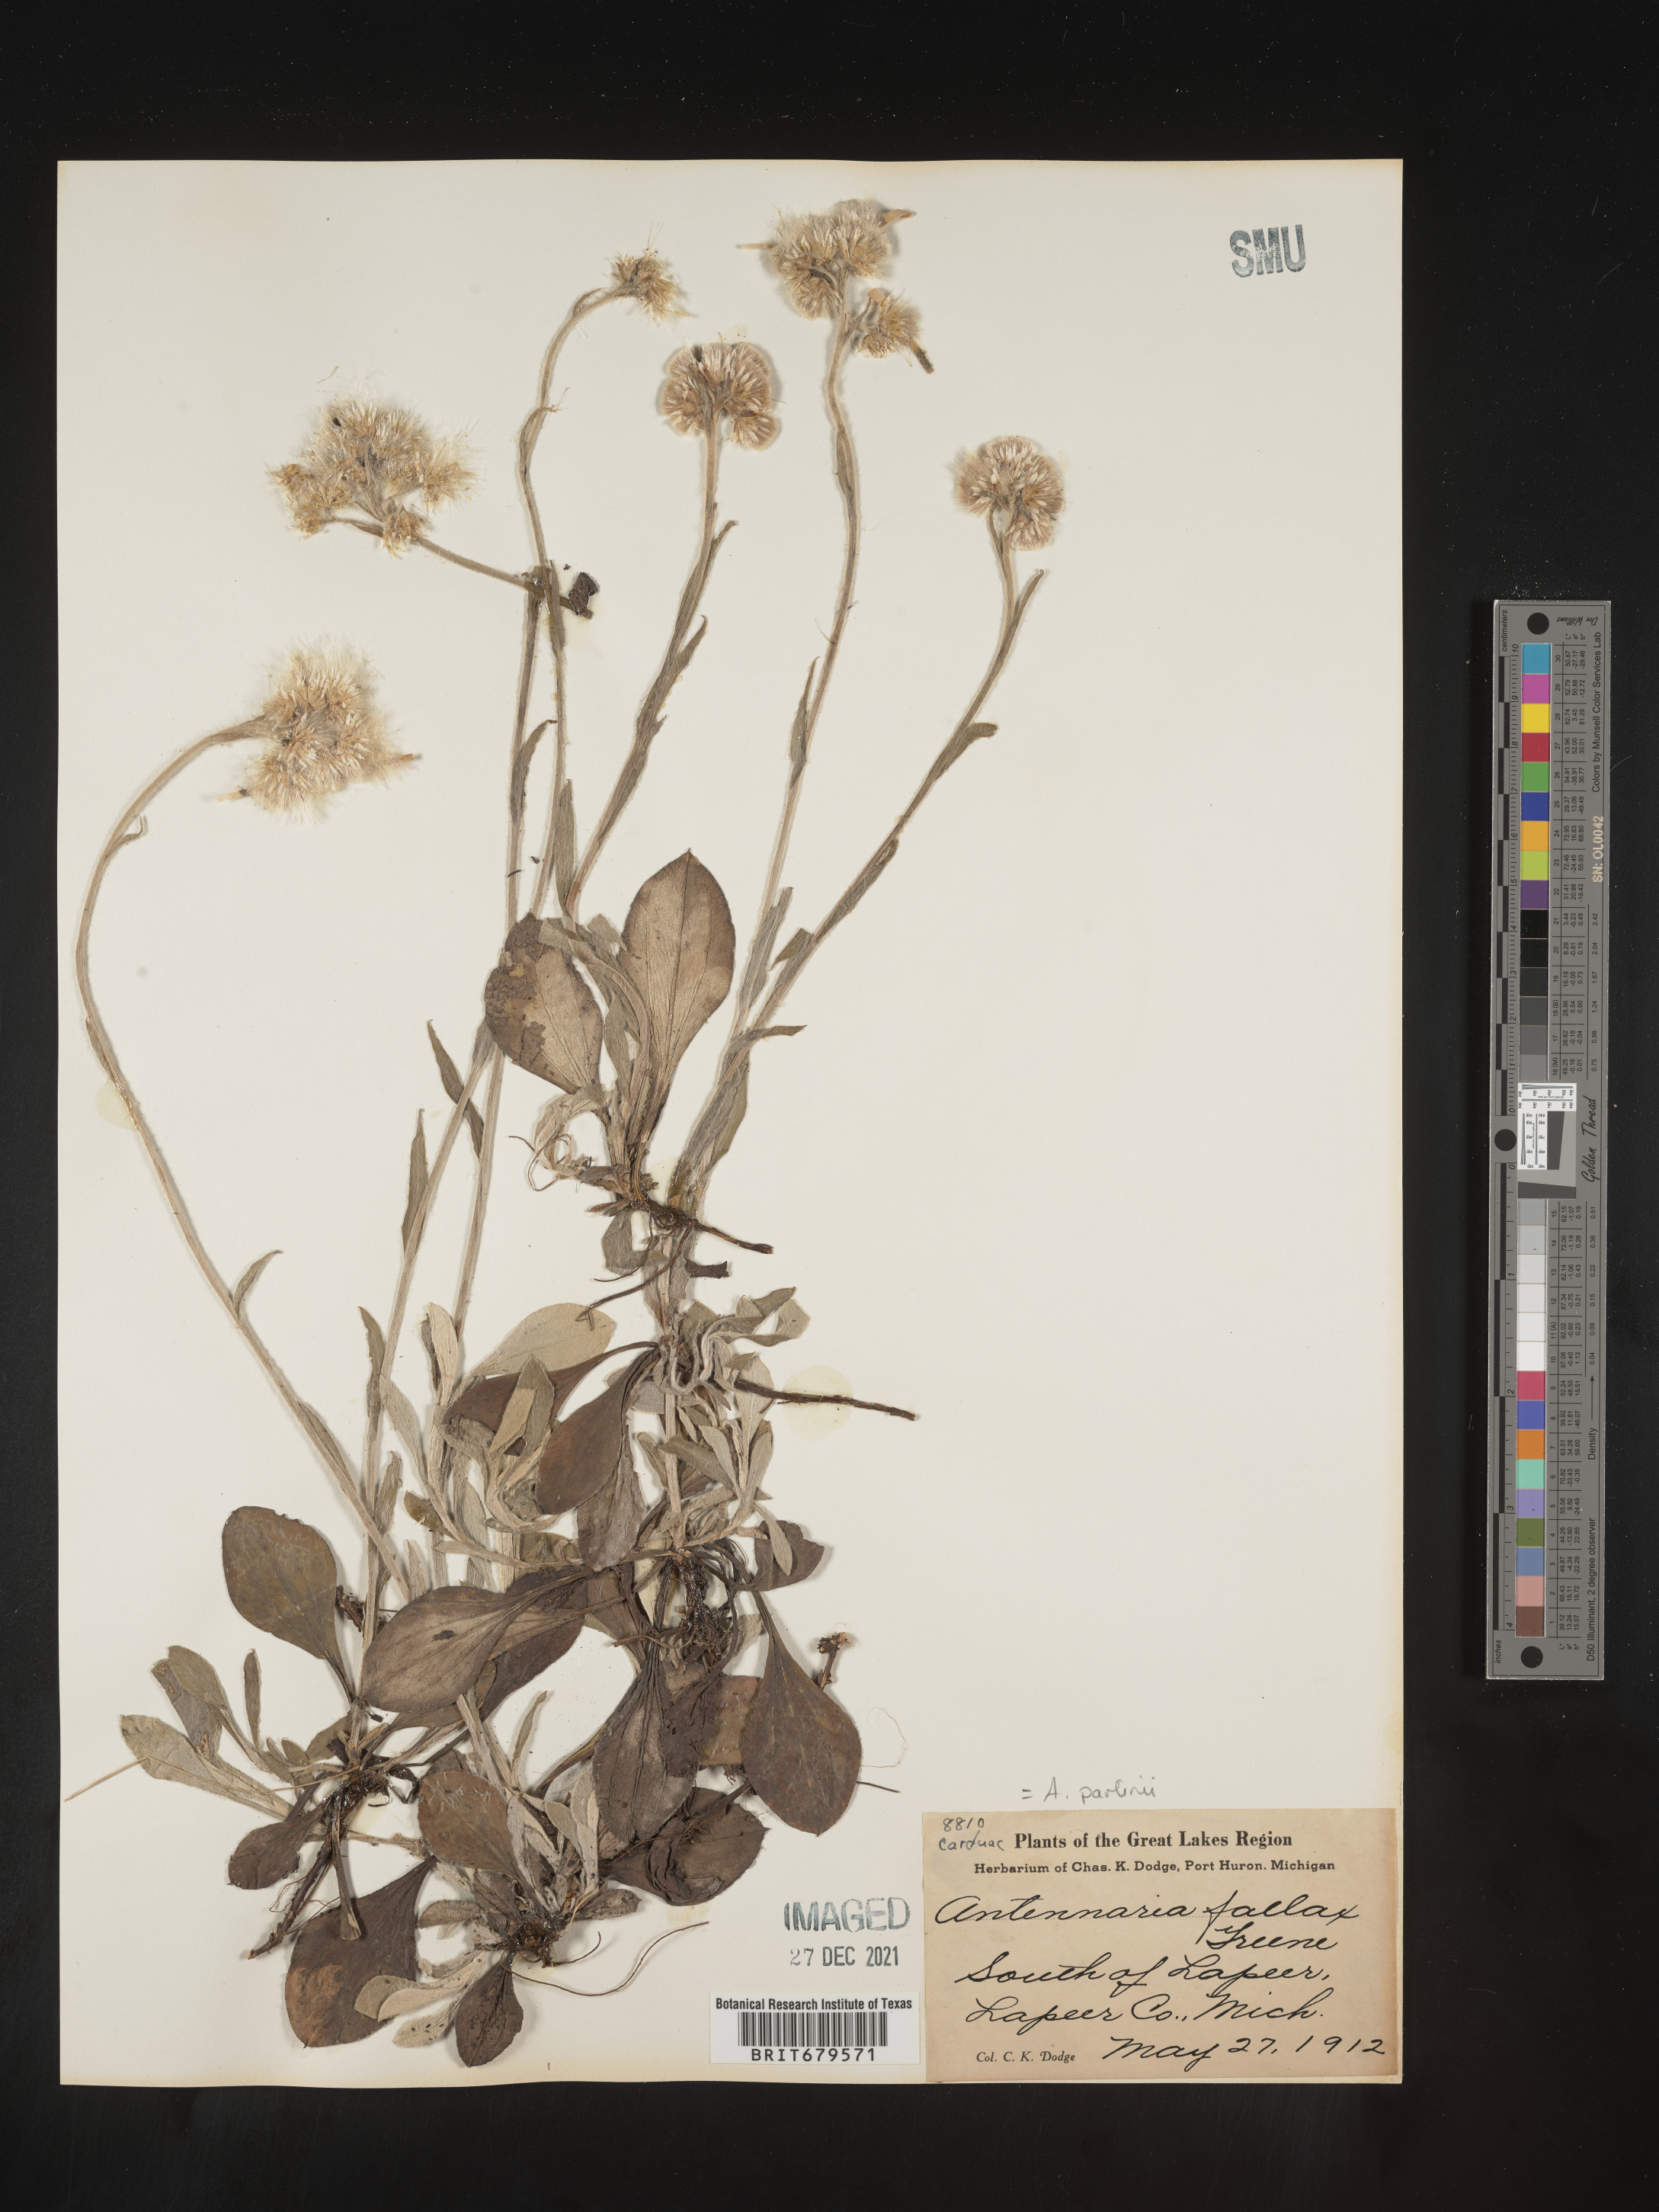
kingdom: Plantae
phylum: Tracheophyta
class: Magnoliopsida
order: Asterales
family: Asteraceae
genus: Antennaria
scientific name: Antennaria parlinii
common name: Parlin's pussytoes
